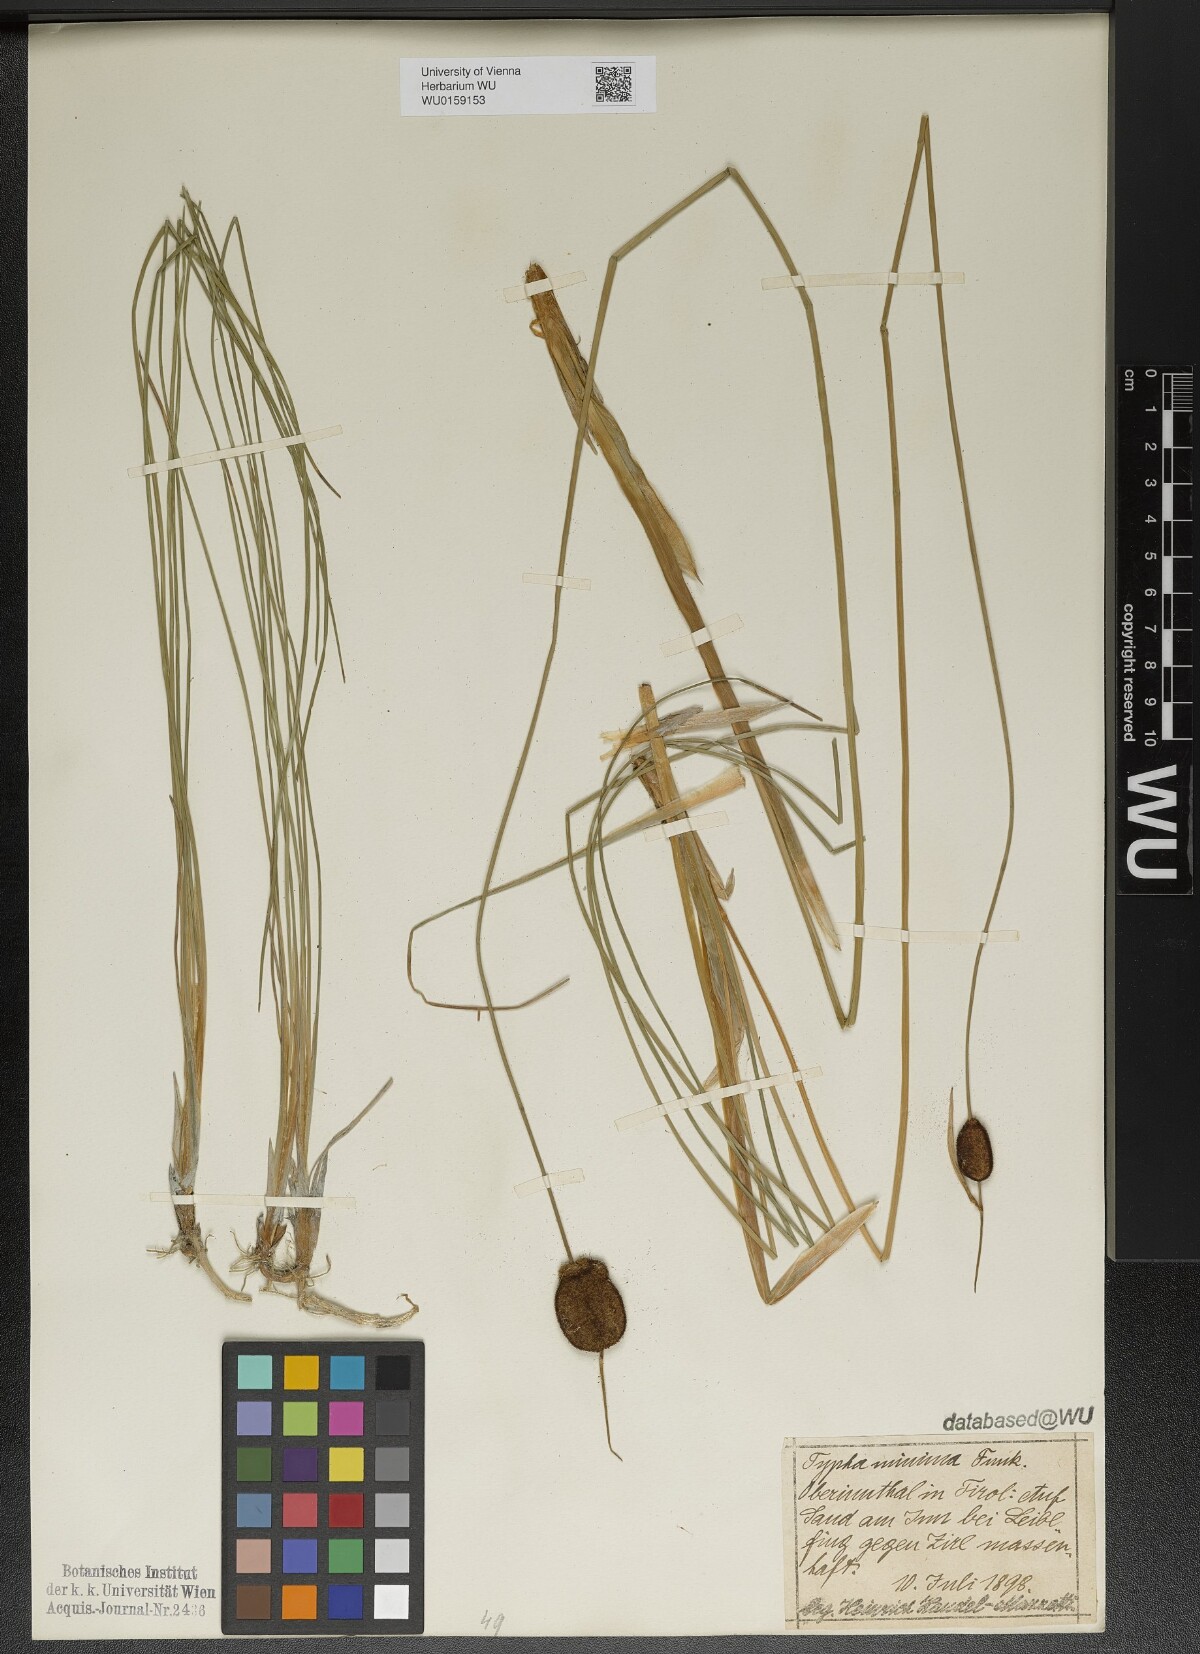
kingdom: Plantae
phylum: Tracheophyta
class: Liliopsida
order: Poales
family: Typhaceae
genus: Typha
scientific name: Typha minima
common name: Dwarf bulrush
